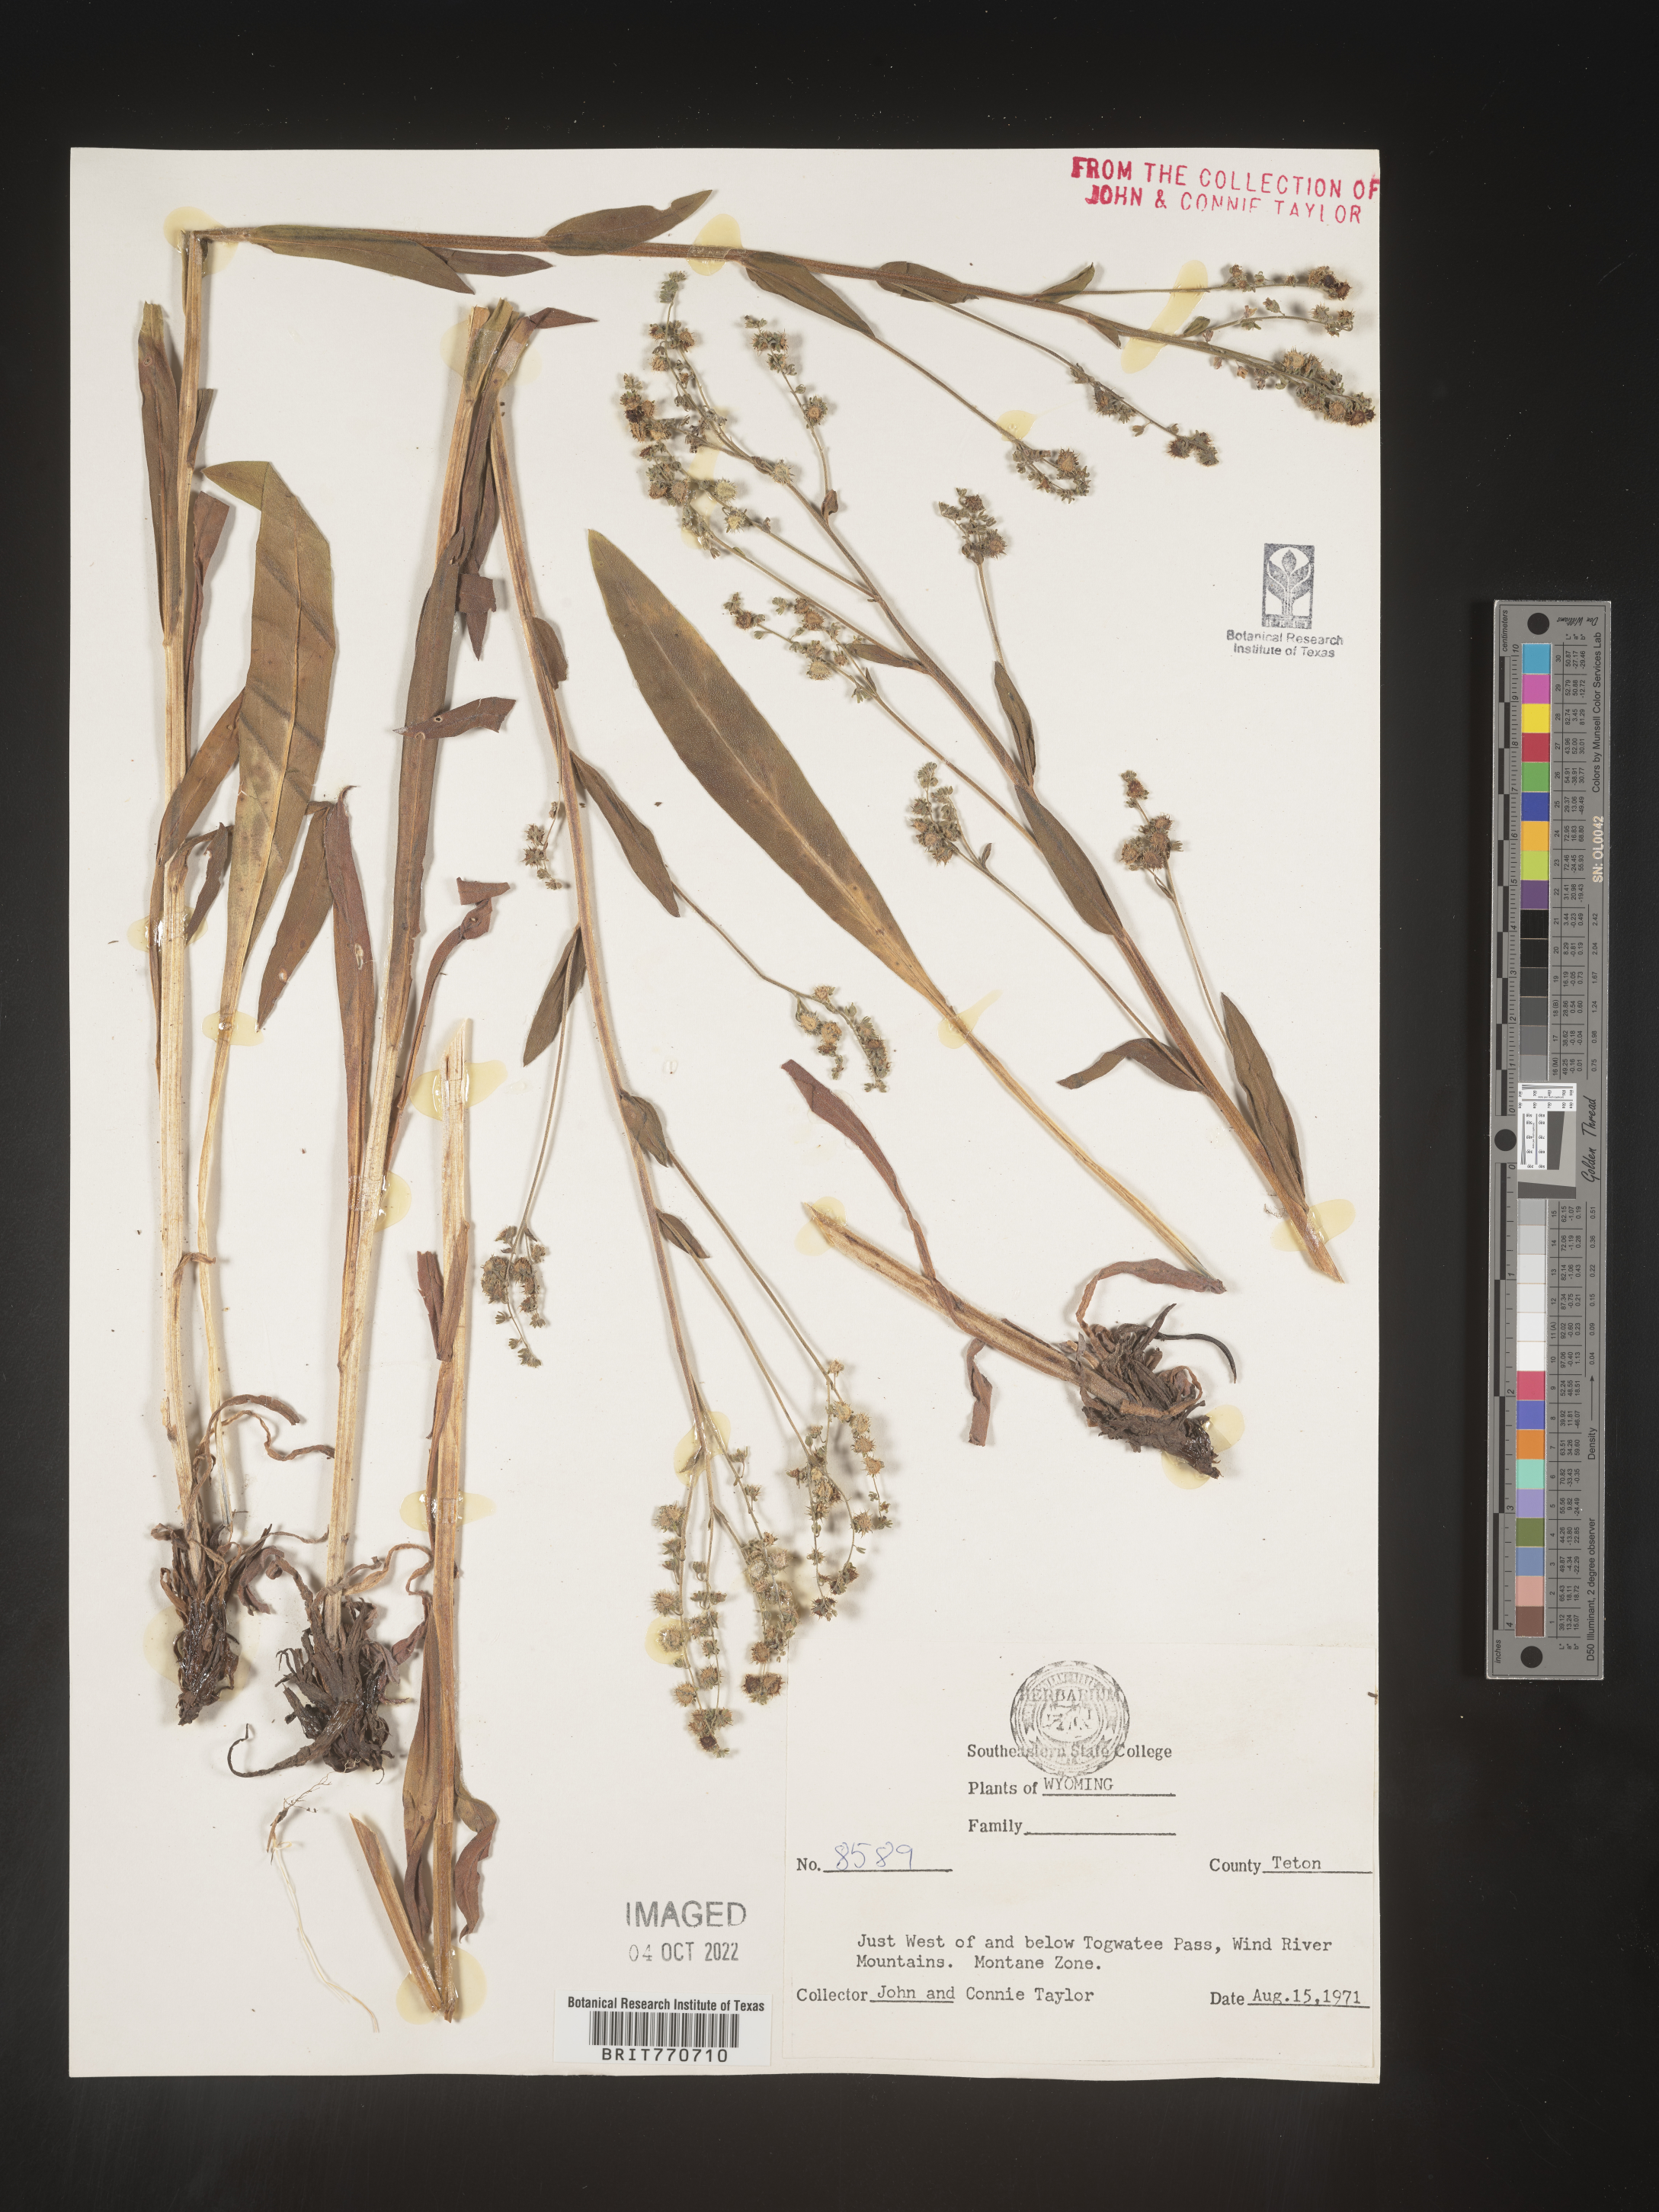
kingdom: Plantae
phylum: Tracheophyta
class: Magnoliopsida
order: Boraginales
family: Boraginaceae
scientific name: Boraginaceae
